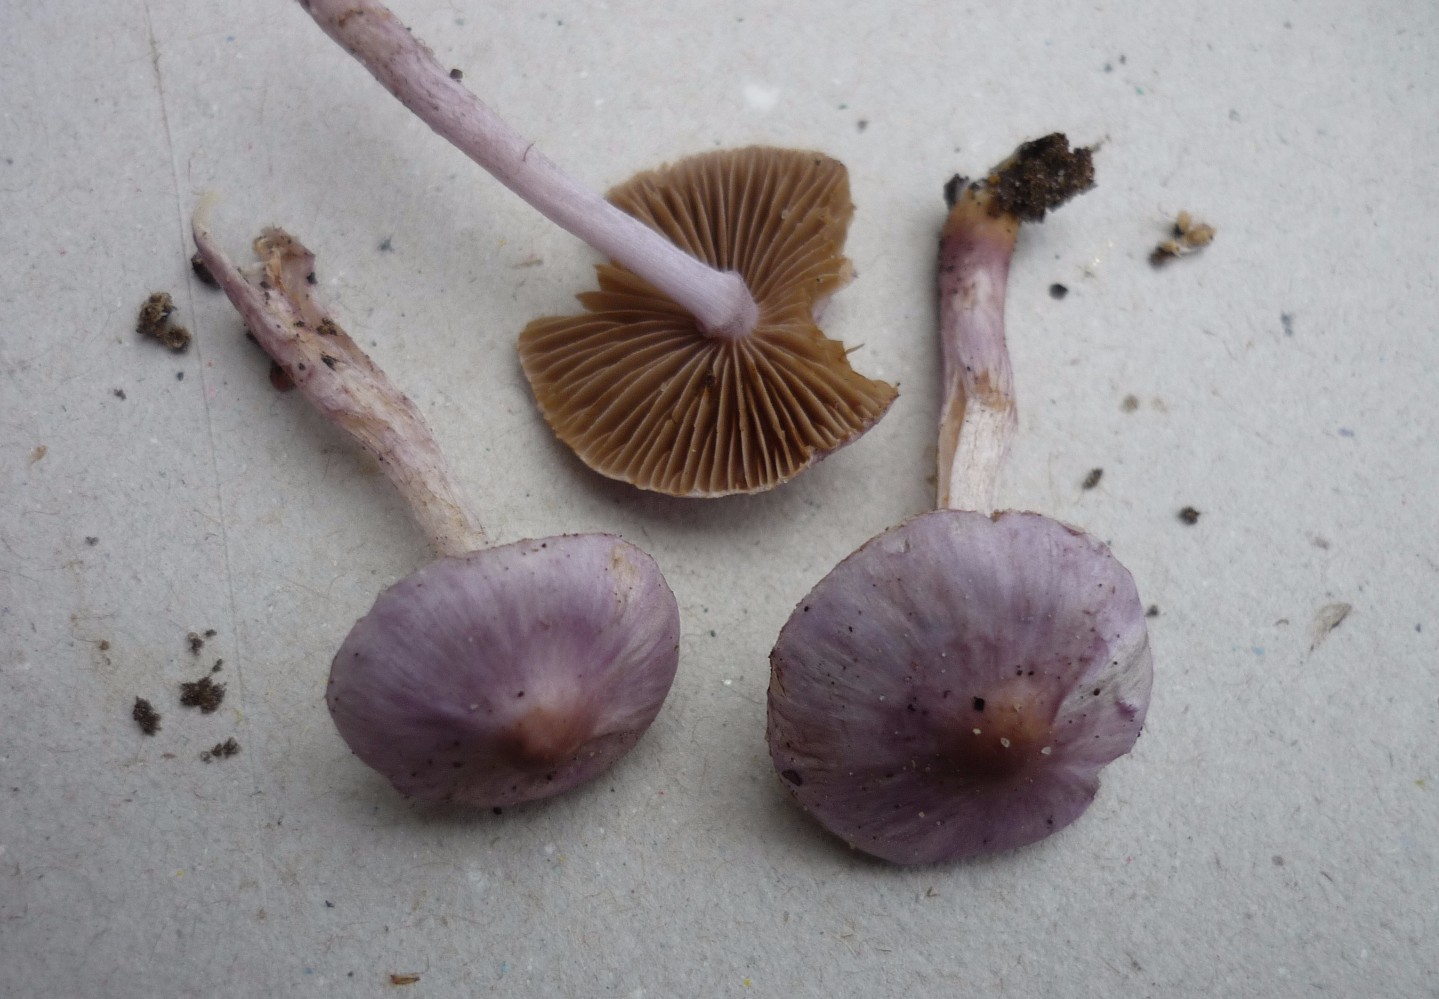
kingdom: Fungi
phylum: Basidiomycota
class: Agaricomycetes
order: Agaricales
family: Inocybaceae
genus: Inocybe
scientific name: Inocybe geophylla
